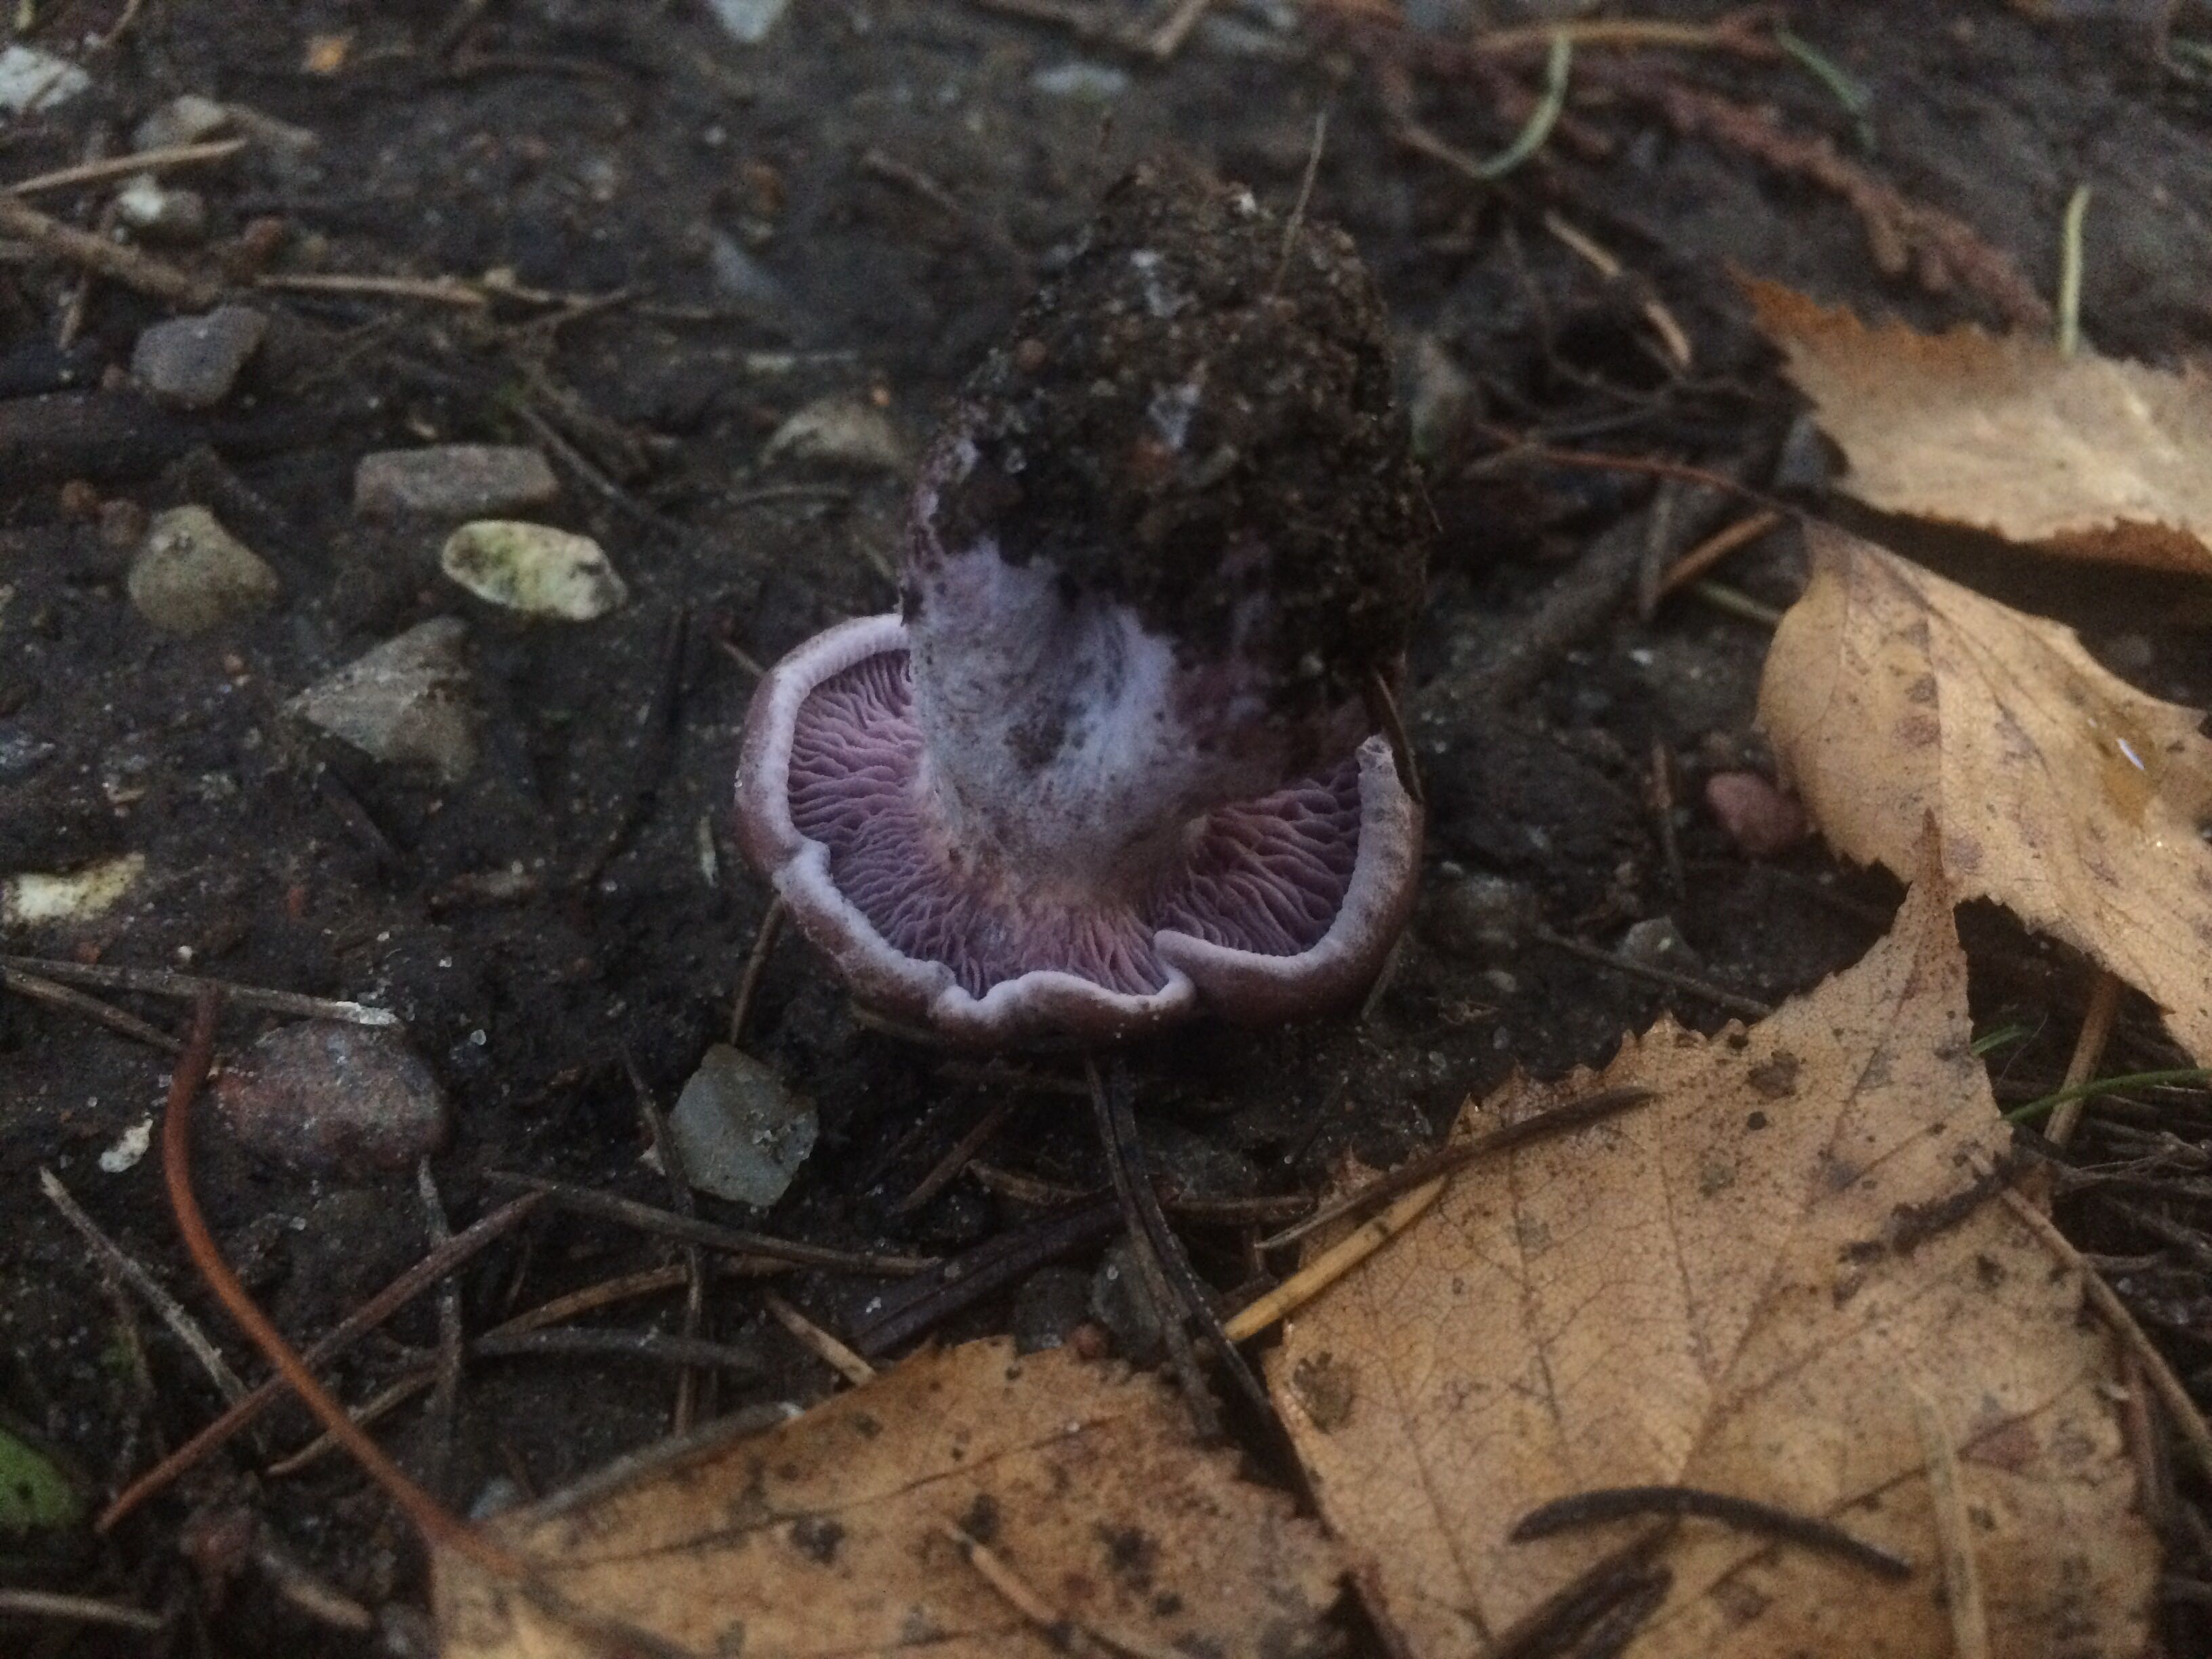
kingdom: Fungi
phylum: Basidiomycota
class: Agaricomycetes
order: Agaricales
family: Tricholomataceae
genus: Lepista
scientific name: Lepista nuda
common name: violet hekseringshat
